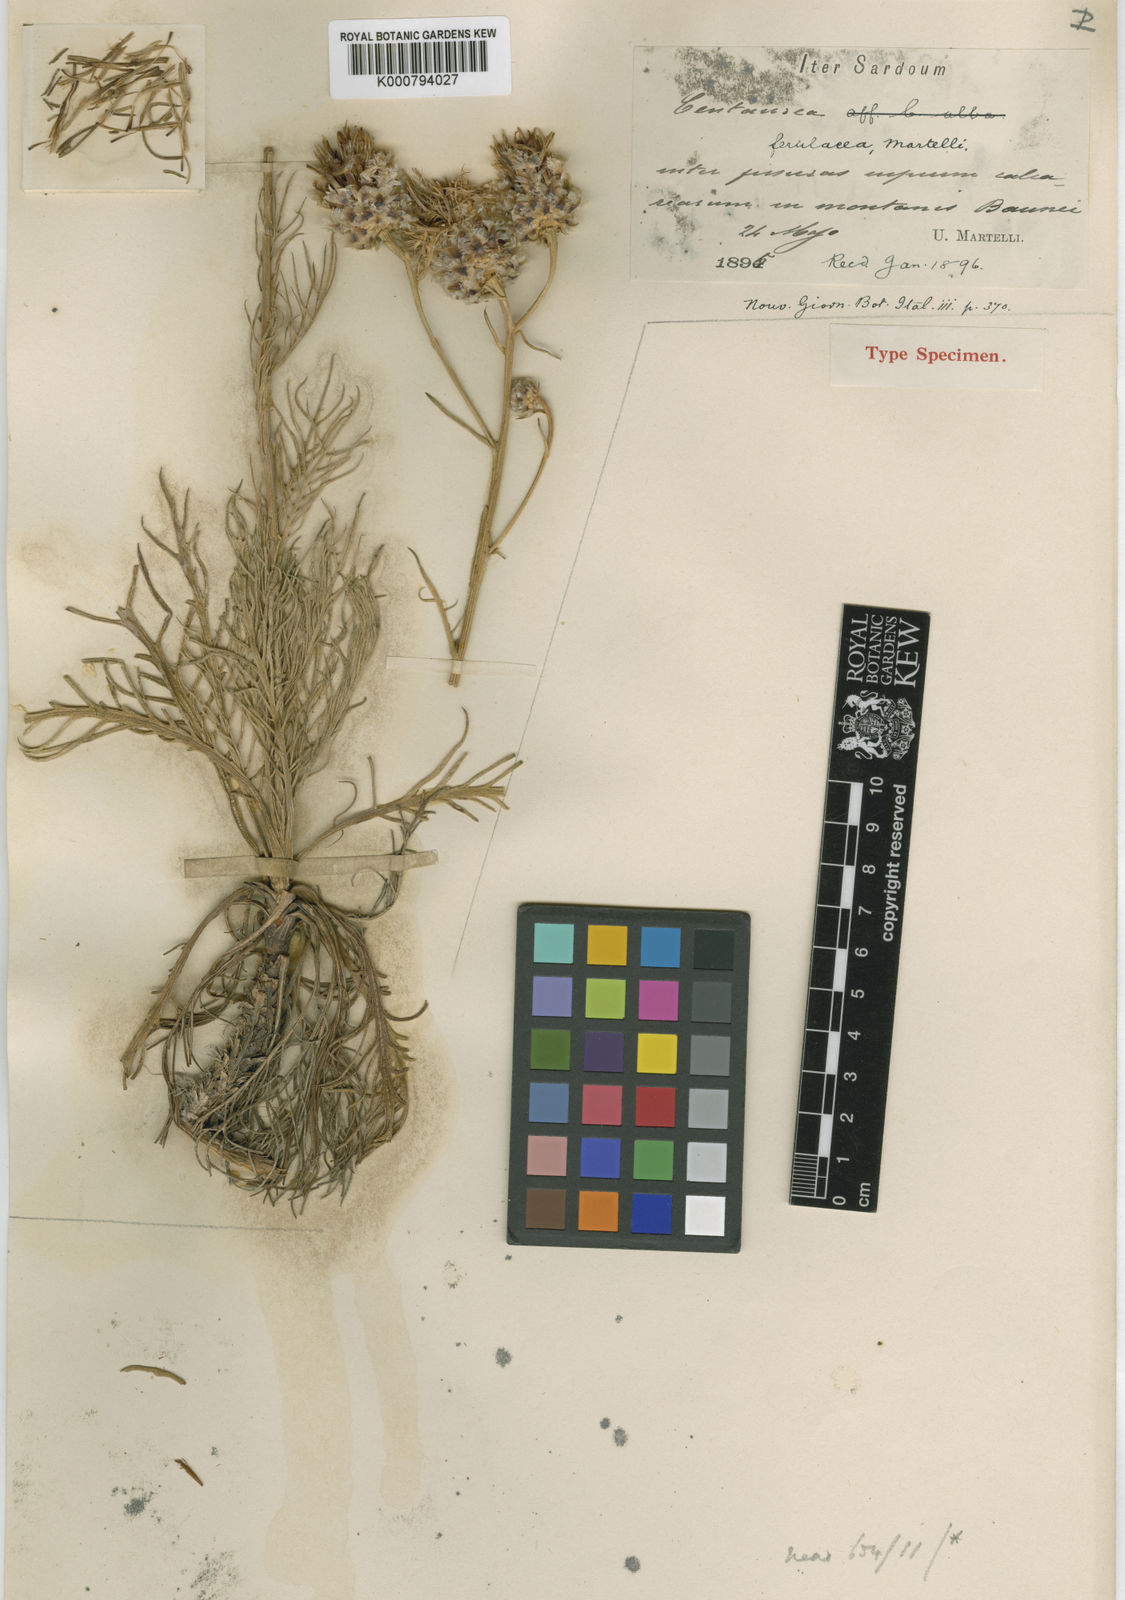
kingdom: Plantae
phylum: Tracheophyta
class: Magnoliopsida
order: Asterales
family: Asteraceae
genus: Centaurea
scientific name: Centaurea filiformis
